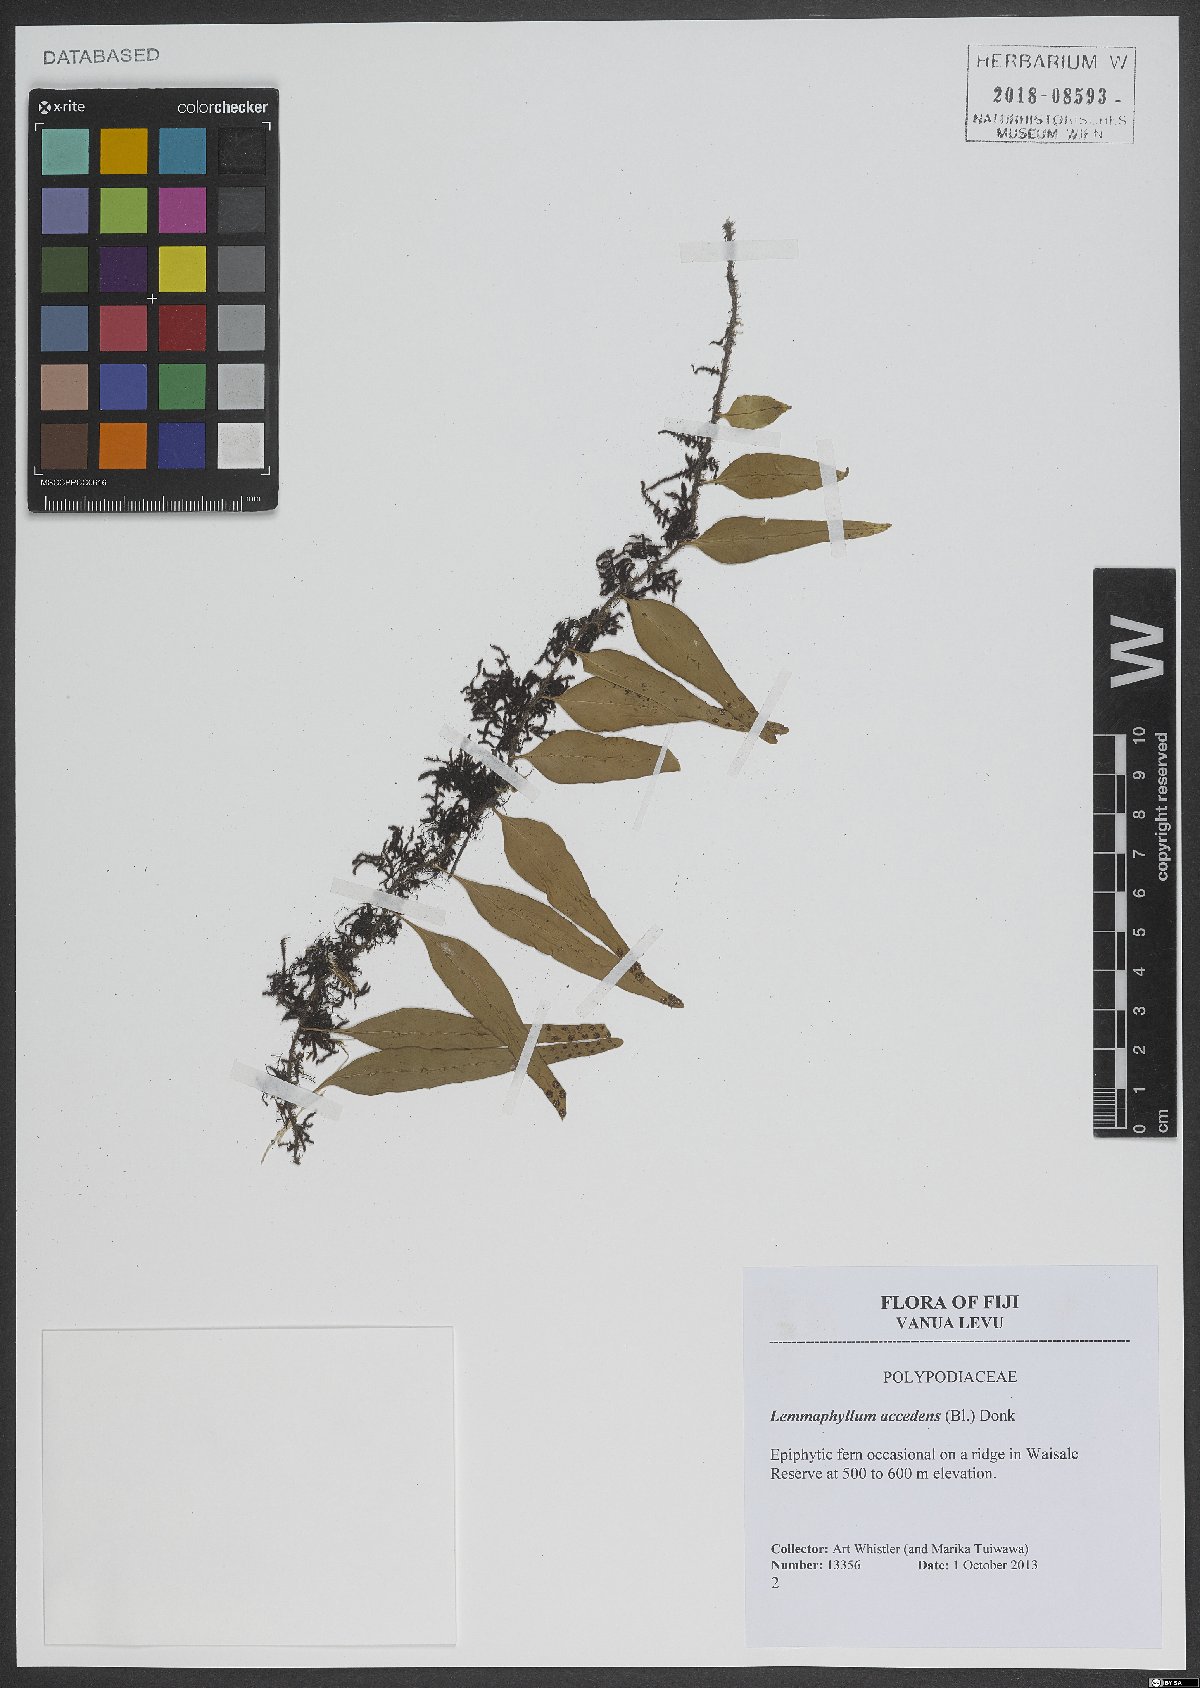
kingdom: Plantae
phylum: Tracheophyta
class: Polypodiopsida
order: Polypodiales
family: Polypodiaceae
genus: Lepisorus
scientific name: Lepisorus accedens
